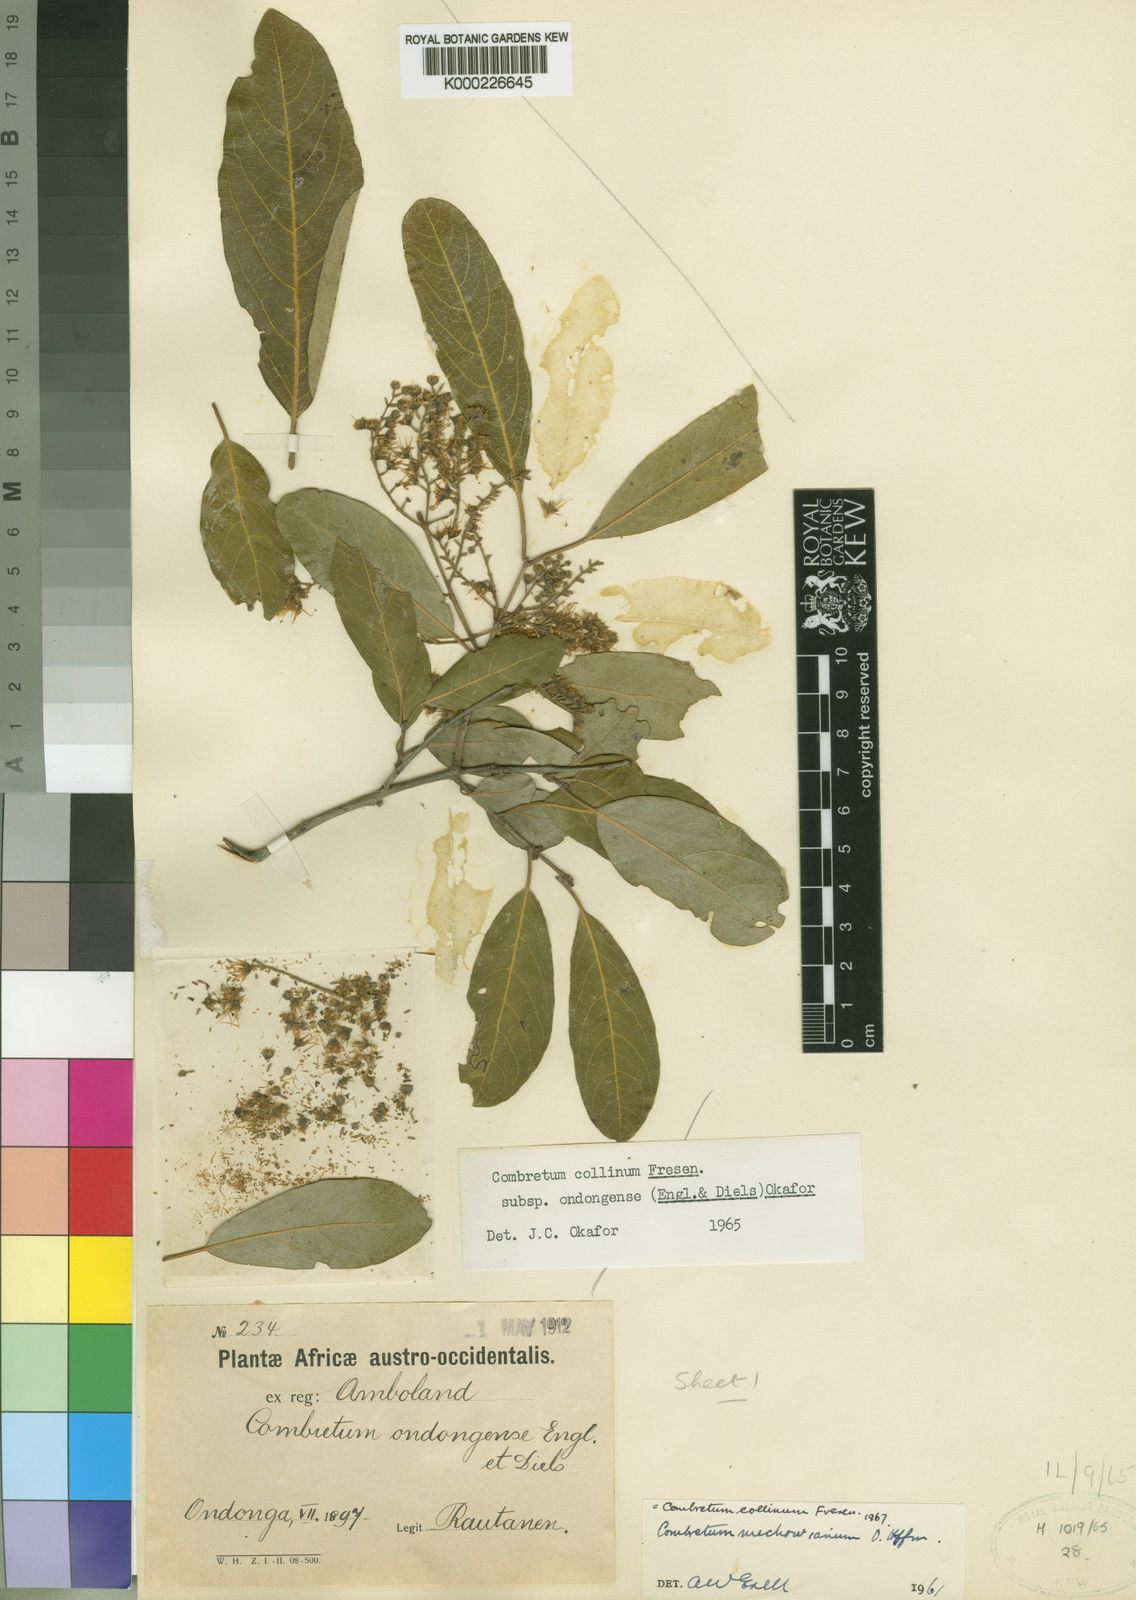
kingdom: Plantae
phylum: Tracheophyta
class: Magnoliopsida
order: Myrtales
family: Combretaceae
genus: Combretum
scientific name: Combretum collinum
